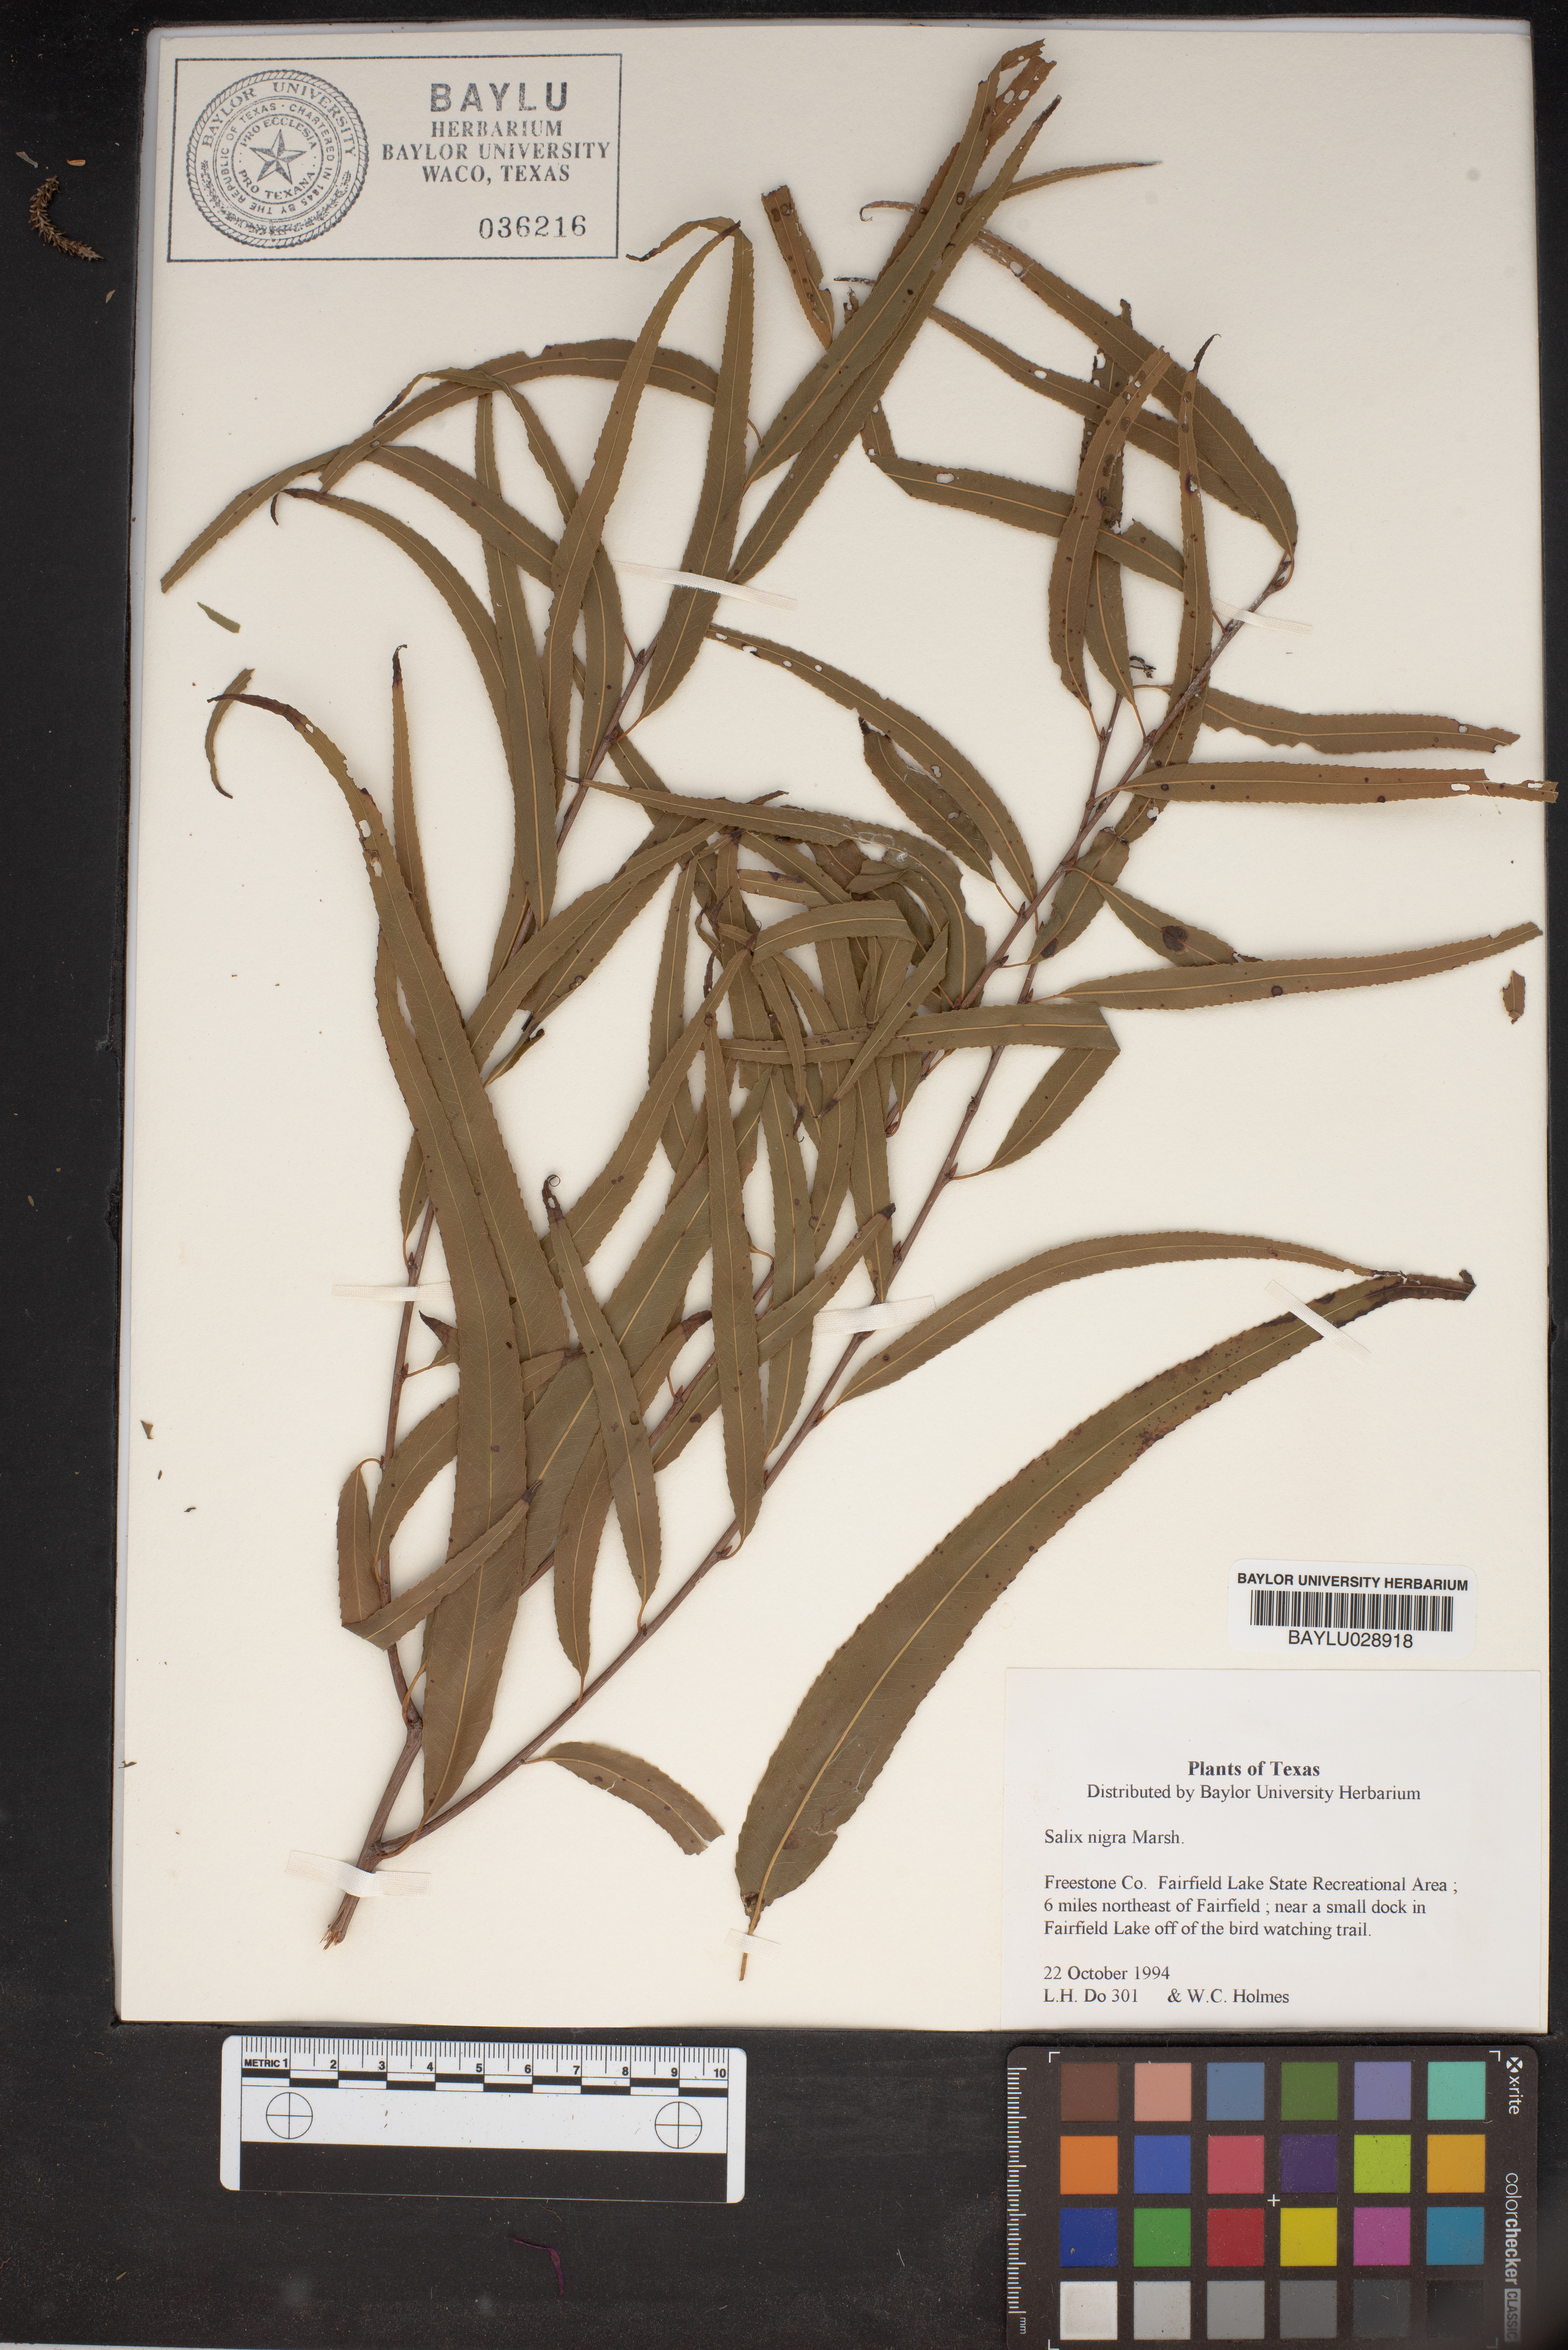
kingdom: Plantae
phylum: Tracheophyta
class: Magnoliopsida
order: Malpighiales
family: Salicaceae
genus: Salix
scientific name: Salix nigra
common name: Black willow
